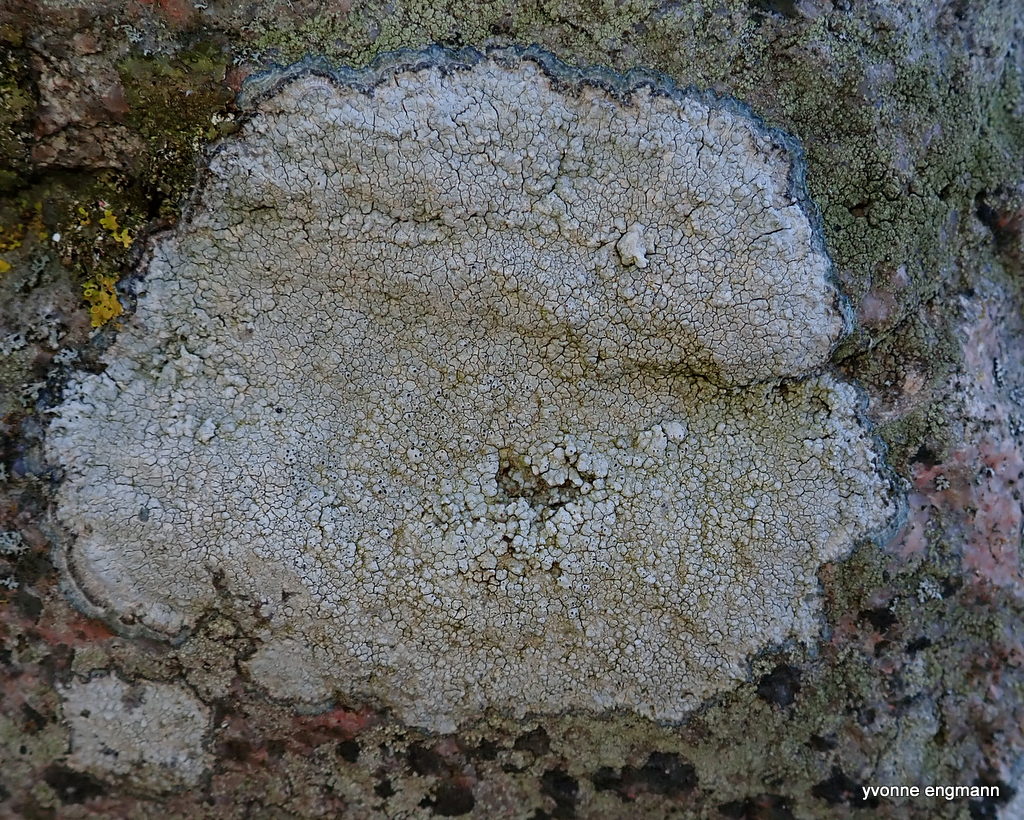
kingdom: Fungi
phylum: Ascomycota
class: Lecanoromycetes
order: Pertusariales
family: Megasporaceae
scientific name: Megasporaceae
